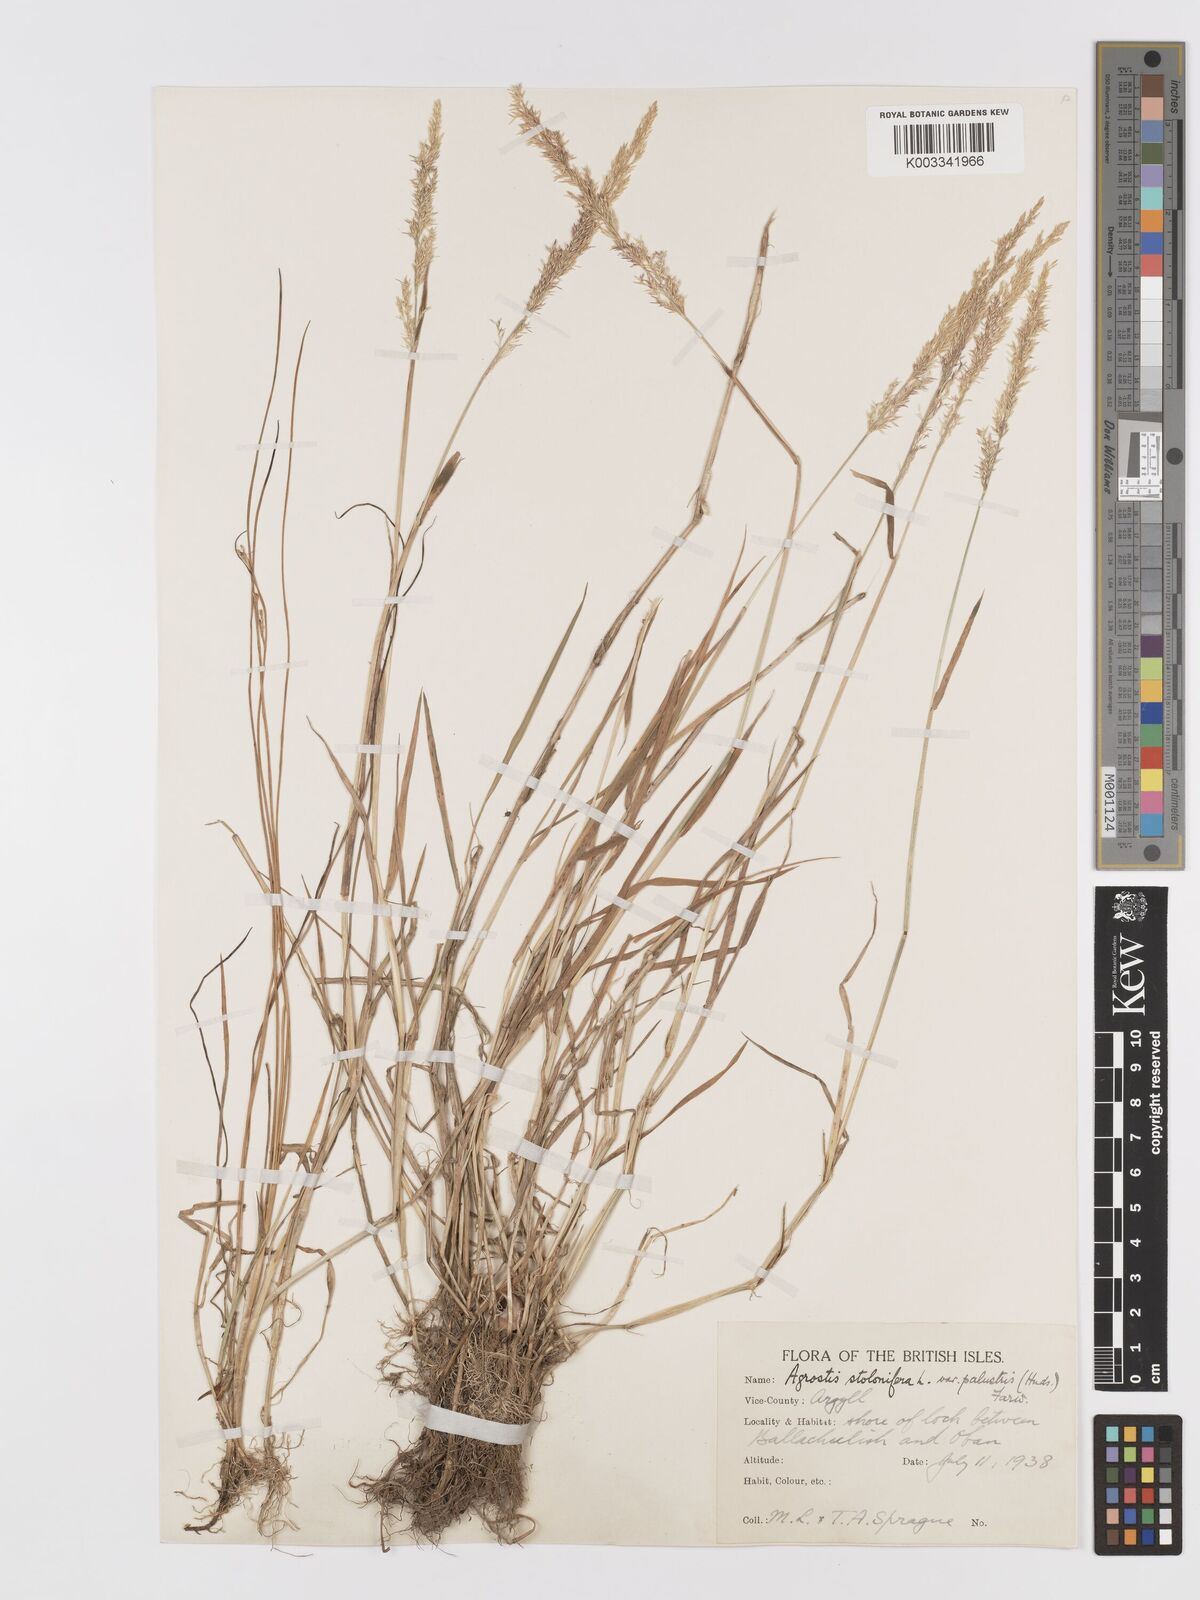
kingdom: Plantae
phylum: Tracheophyta
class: Liliopsida
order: Poales
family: Poaceae
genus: Agrostis
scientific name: Agrostis stolonifera
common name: Creeping bentgrass
